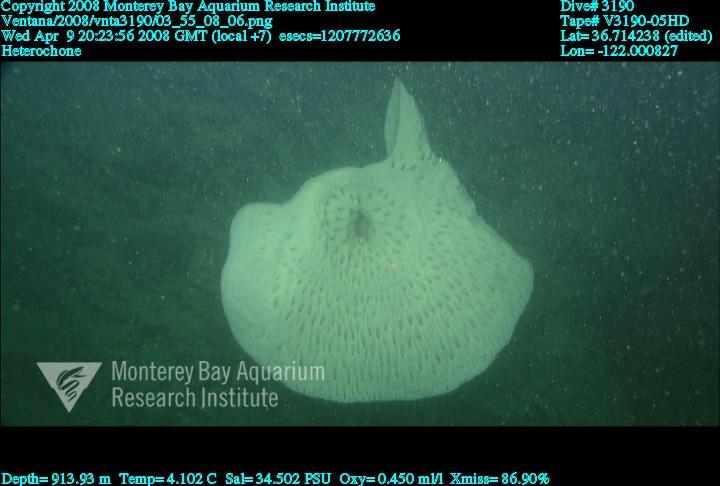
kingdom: Animalia
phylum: Porifera
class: Hexactinellida
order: Sceptrulophora
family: Aphrocallistidae
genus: Heterochone
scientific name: Heterochone
